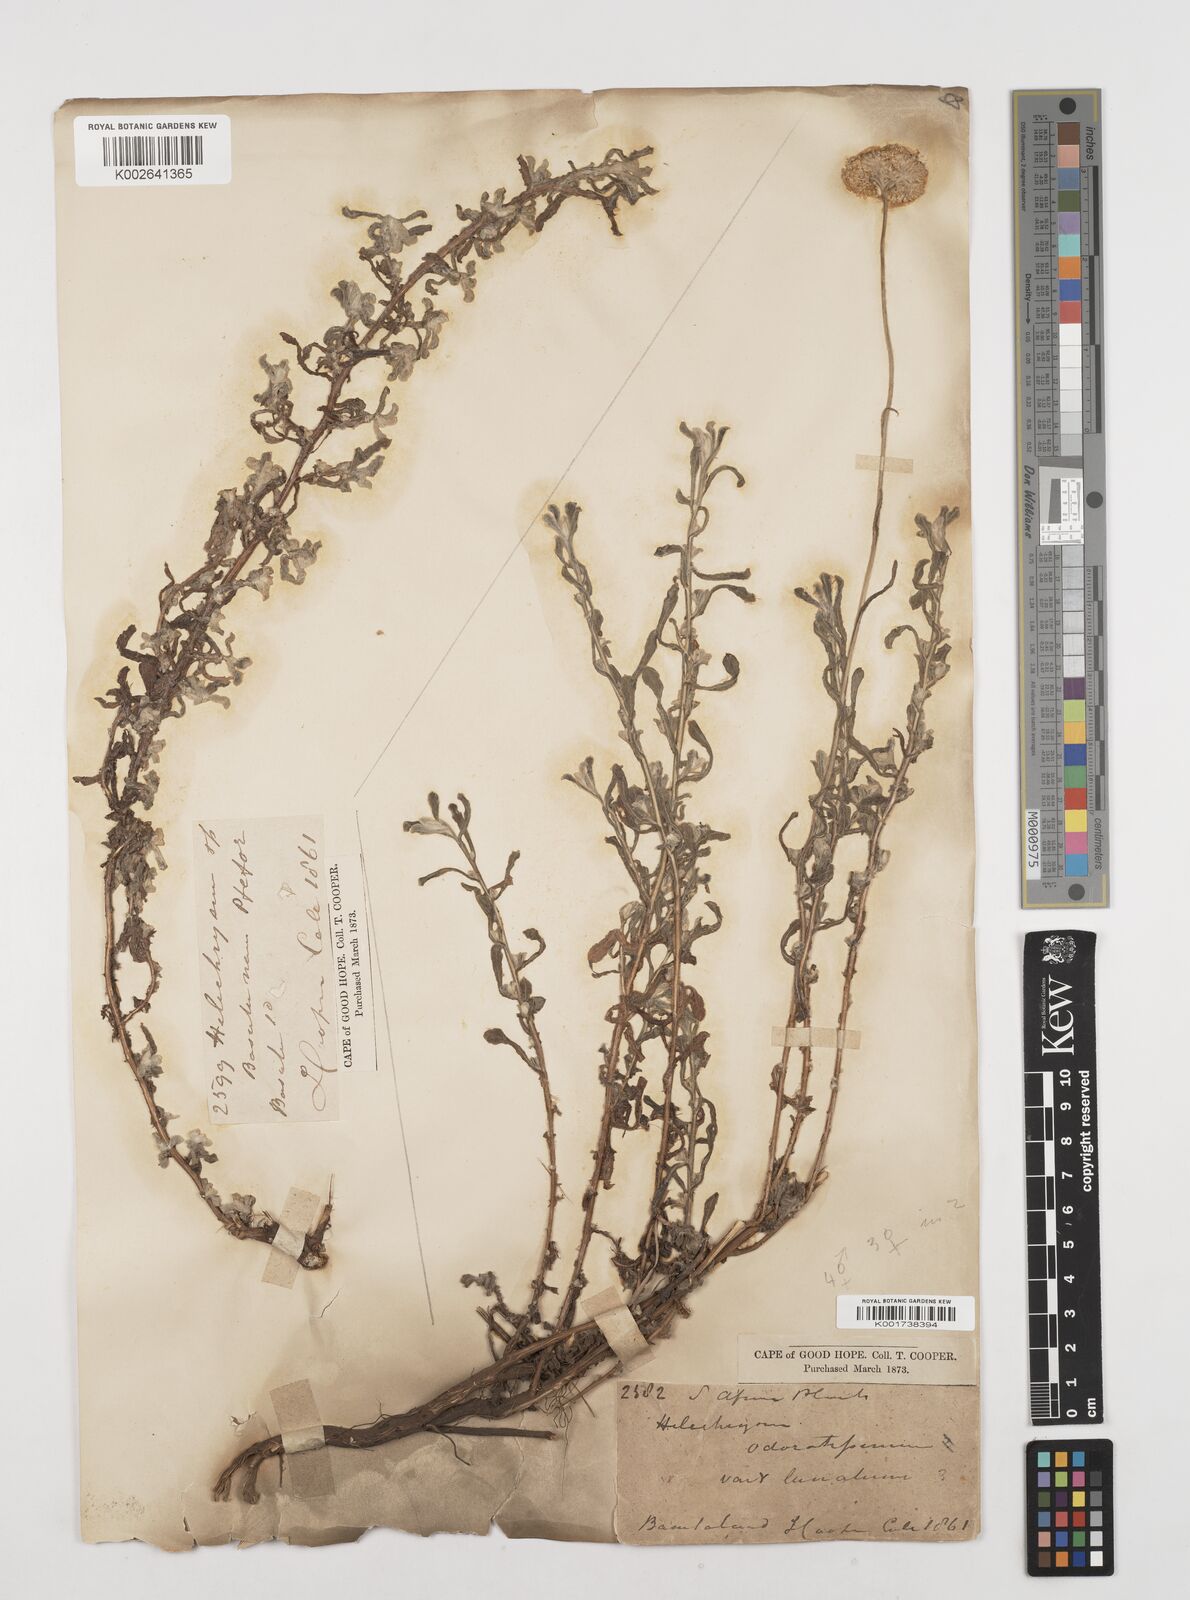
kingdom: Plantae
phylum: Tracheophyta
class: Magnoliopsida
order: Asterales
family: Asteraceae
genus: Helichrysum
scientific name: Helichrysum odoratissimum
